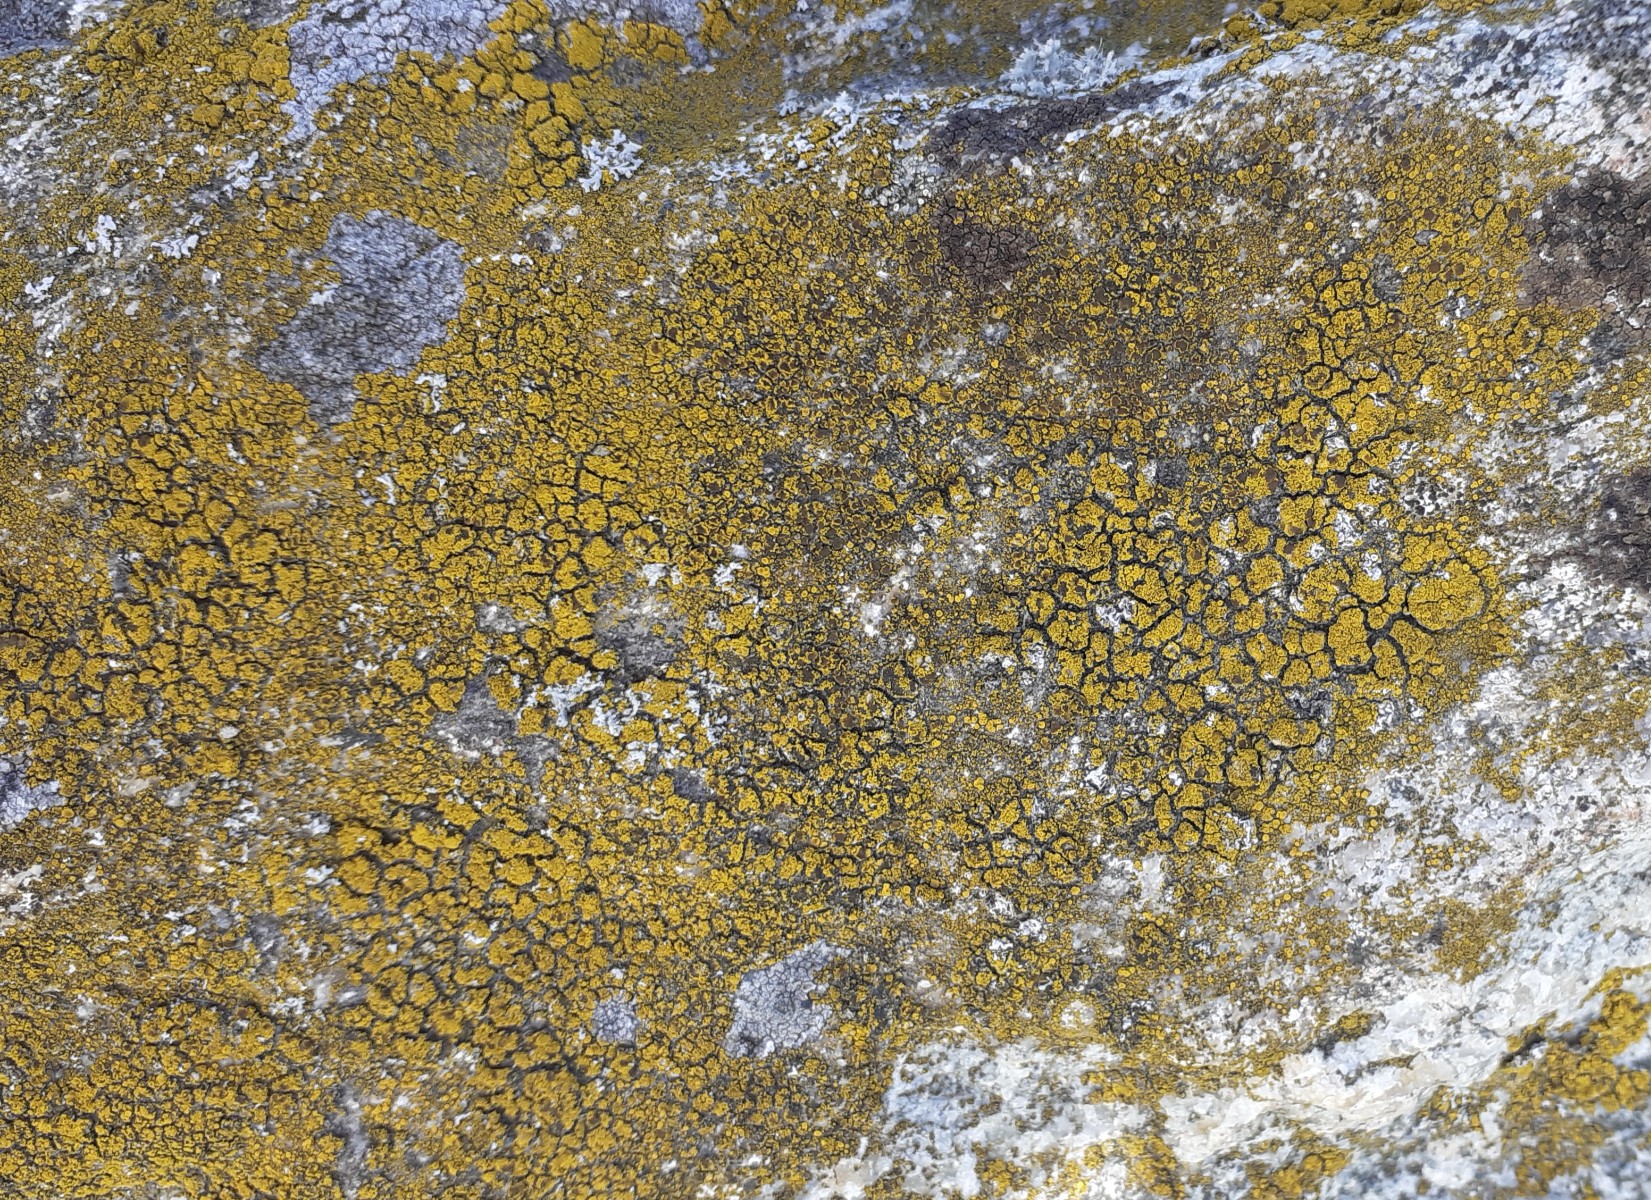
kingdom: Fungi
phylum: Ascomycota
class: Candelariomycetes
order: Candelariales
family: Candelariaceae
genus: Candelariella
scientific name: Candelariella vitellina
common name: almindelig æggeblommelav
